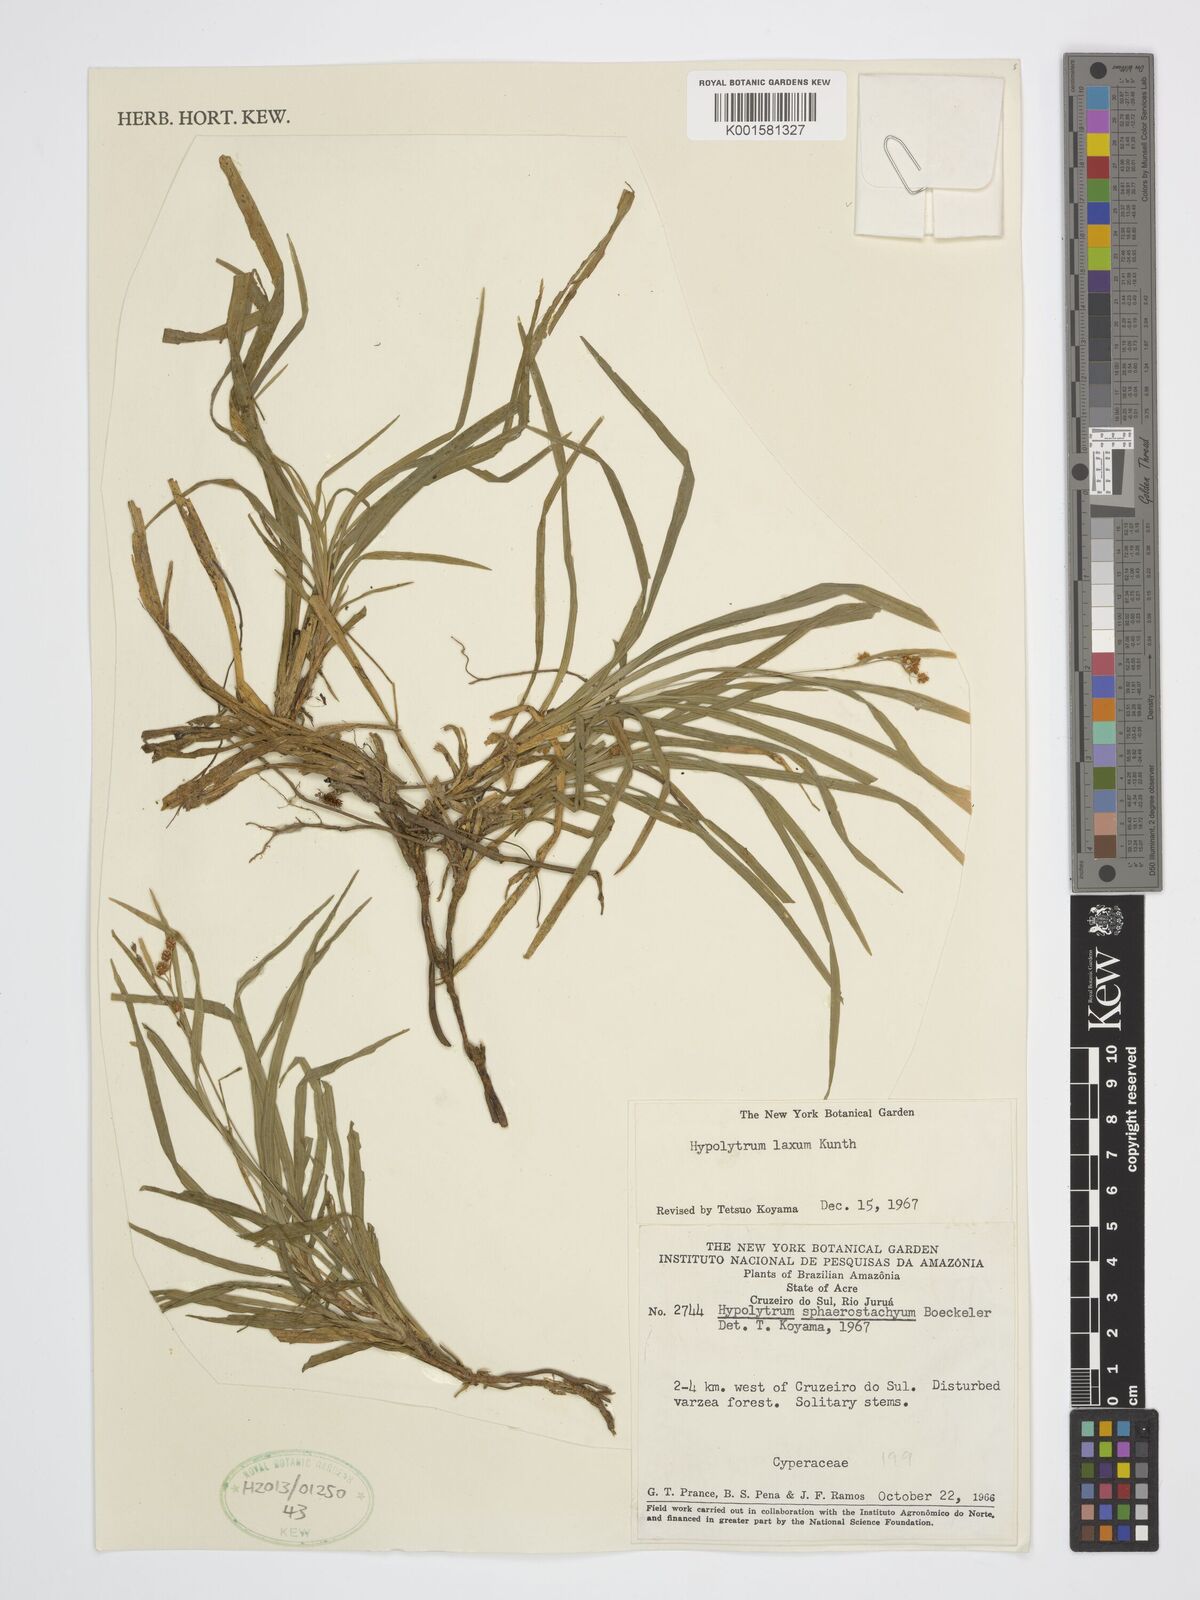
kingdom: Plantae
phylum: Tracheophyta
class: Liliopsida
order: Poales
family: Cyperaceae
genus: Hypolytrum
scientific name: Hypolytrum laxum
